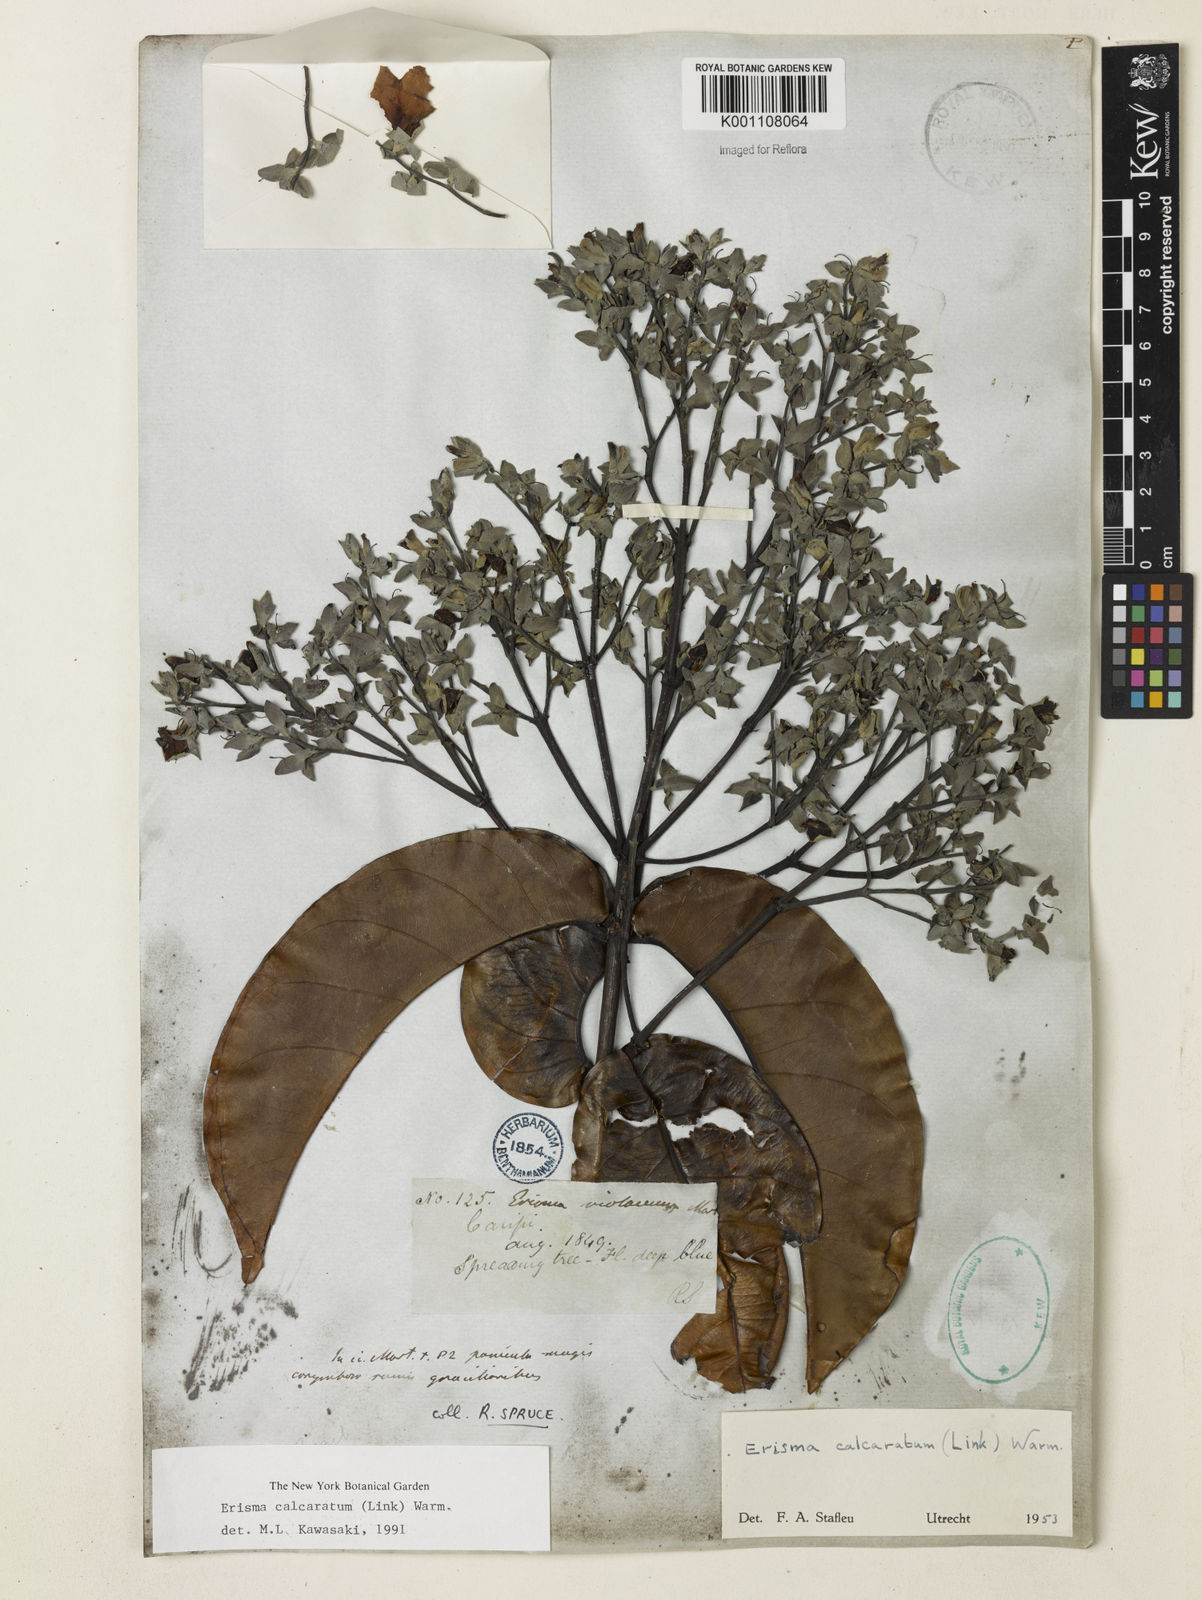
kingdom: Plantae
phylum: Tracheophyta
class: Magnoliopsida
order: Myrtales
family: Vochysiaceae
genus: Erisma
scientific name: Erisma calcaratum
